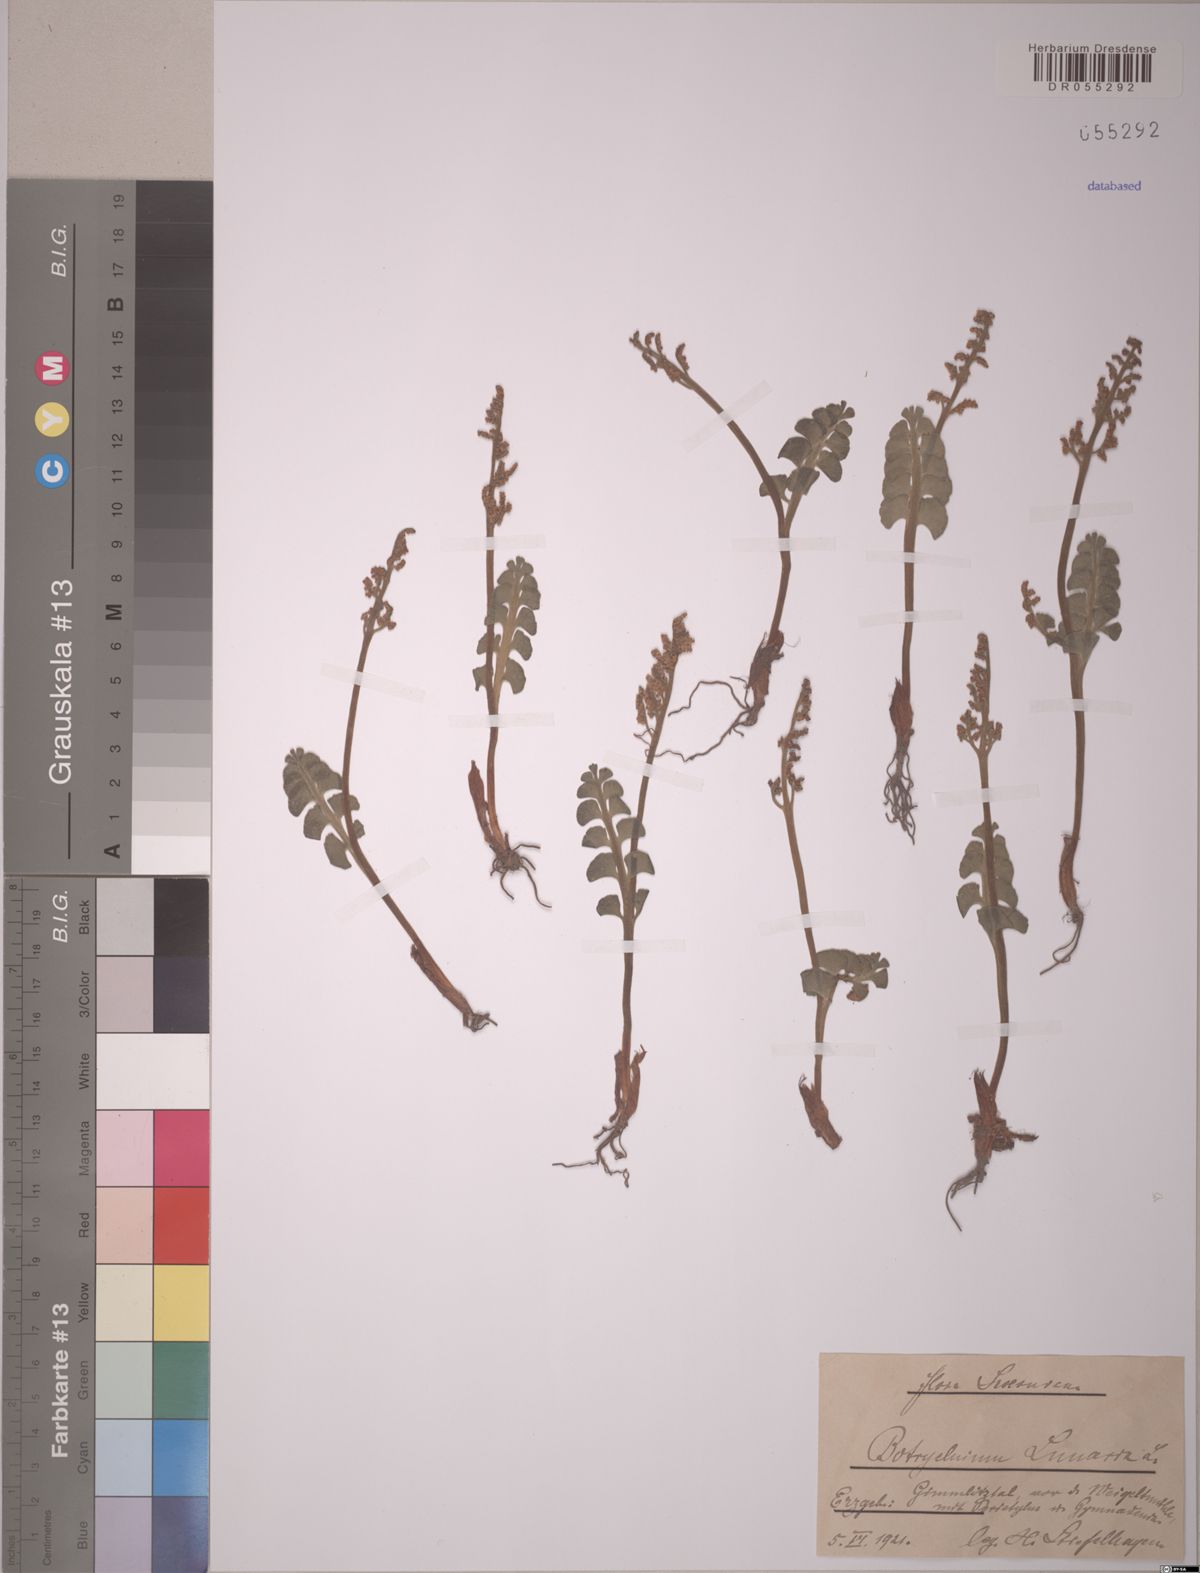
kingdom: Plantae
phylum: Tracheophyta
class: Polypodiopsida
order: Ophioglossales
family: Ophioglossaceae
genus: Botrychium
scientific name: Botrychium lunaria
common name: Moonwort
